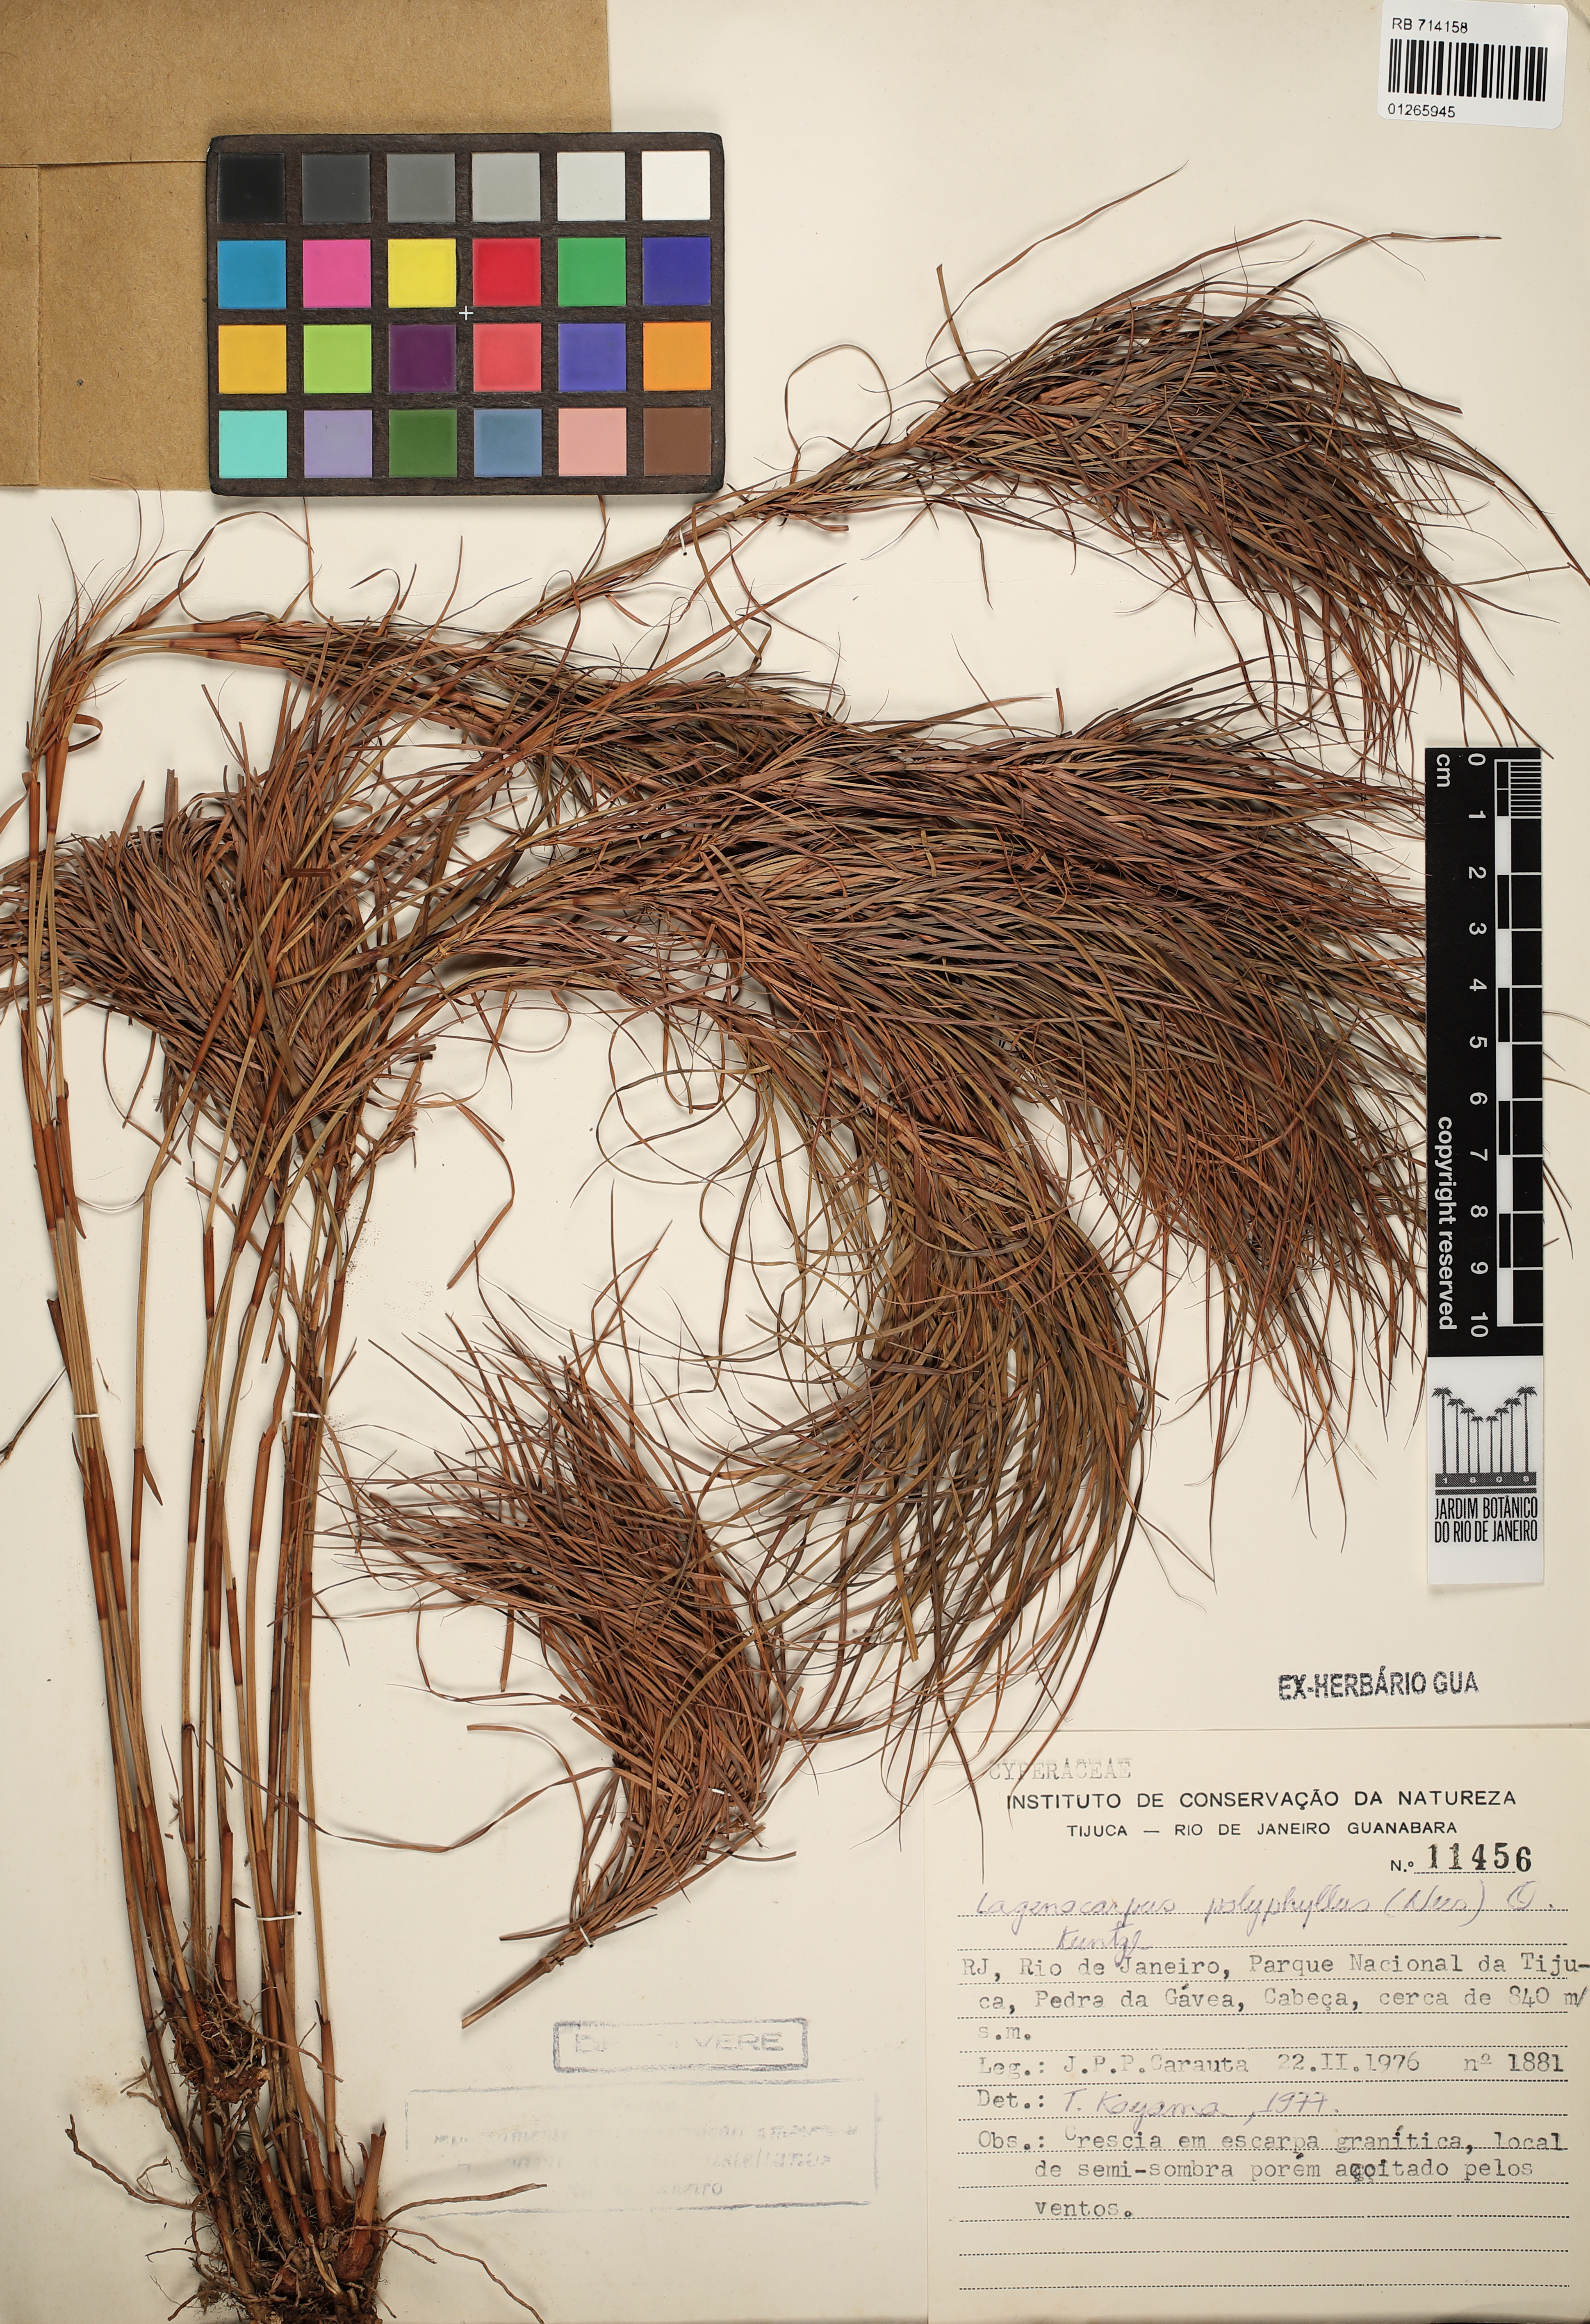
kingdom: Plantae
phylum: Tracheophyta
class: Liliopsida
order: Poales
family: Cyperaceae
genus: Krenakia
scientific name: Krenakia polyphylla
